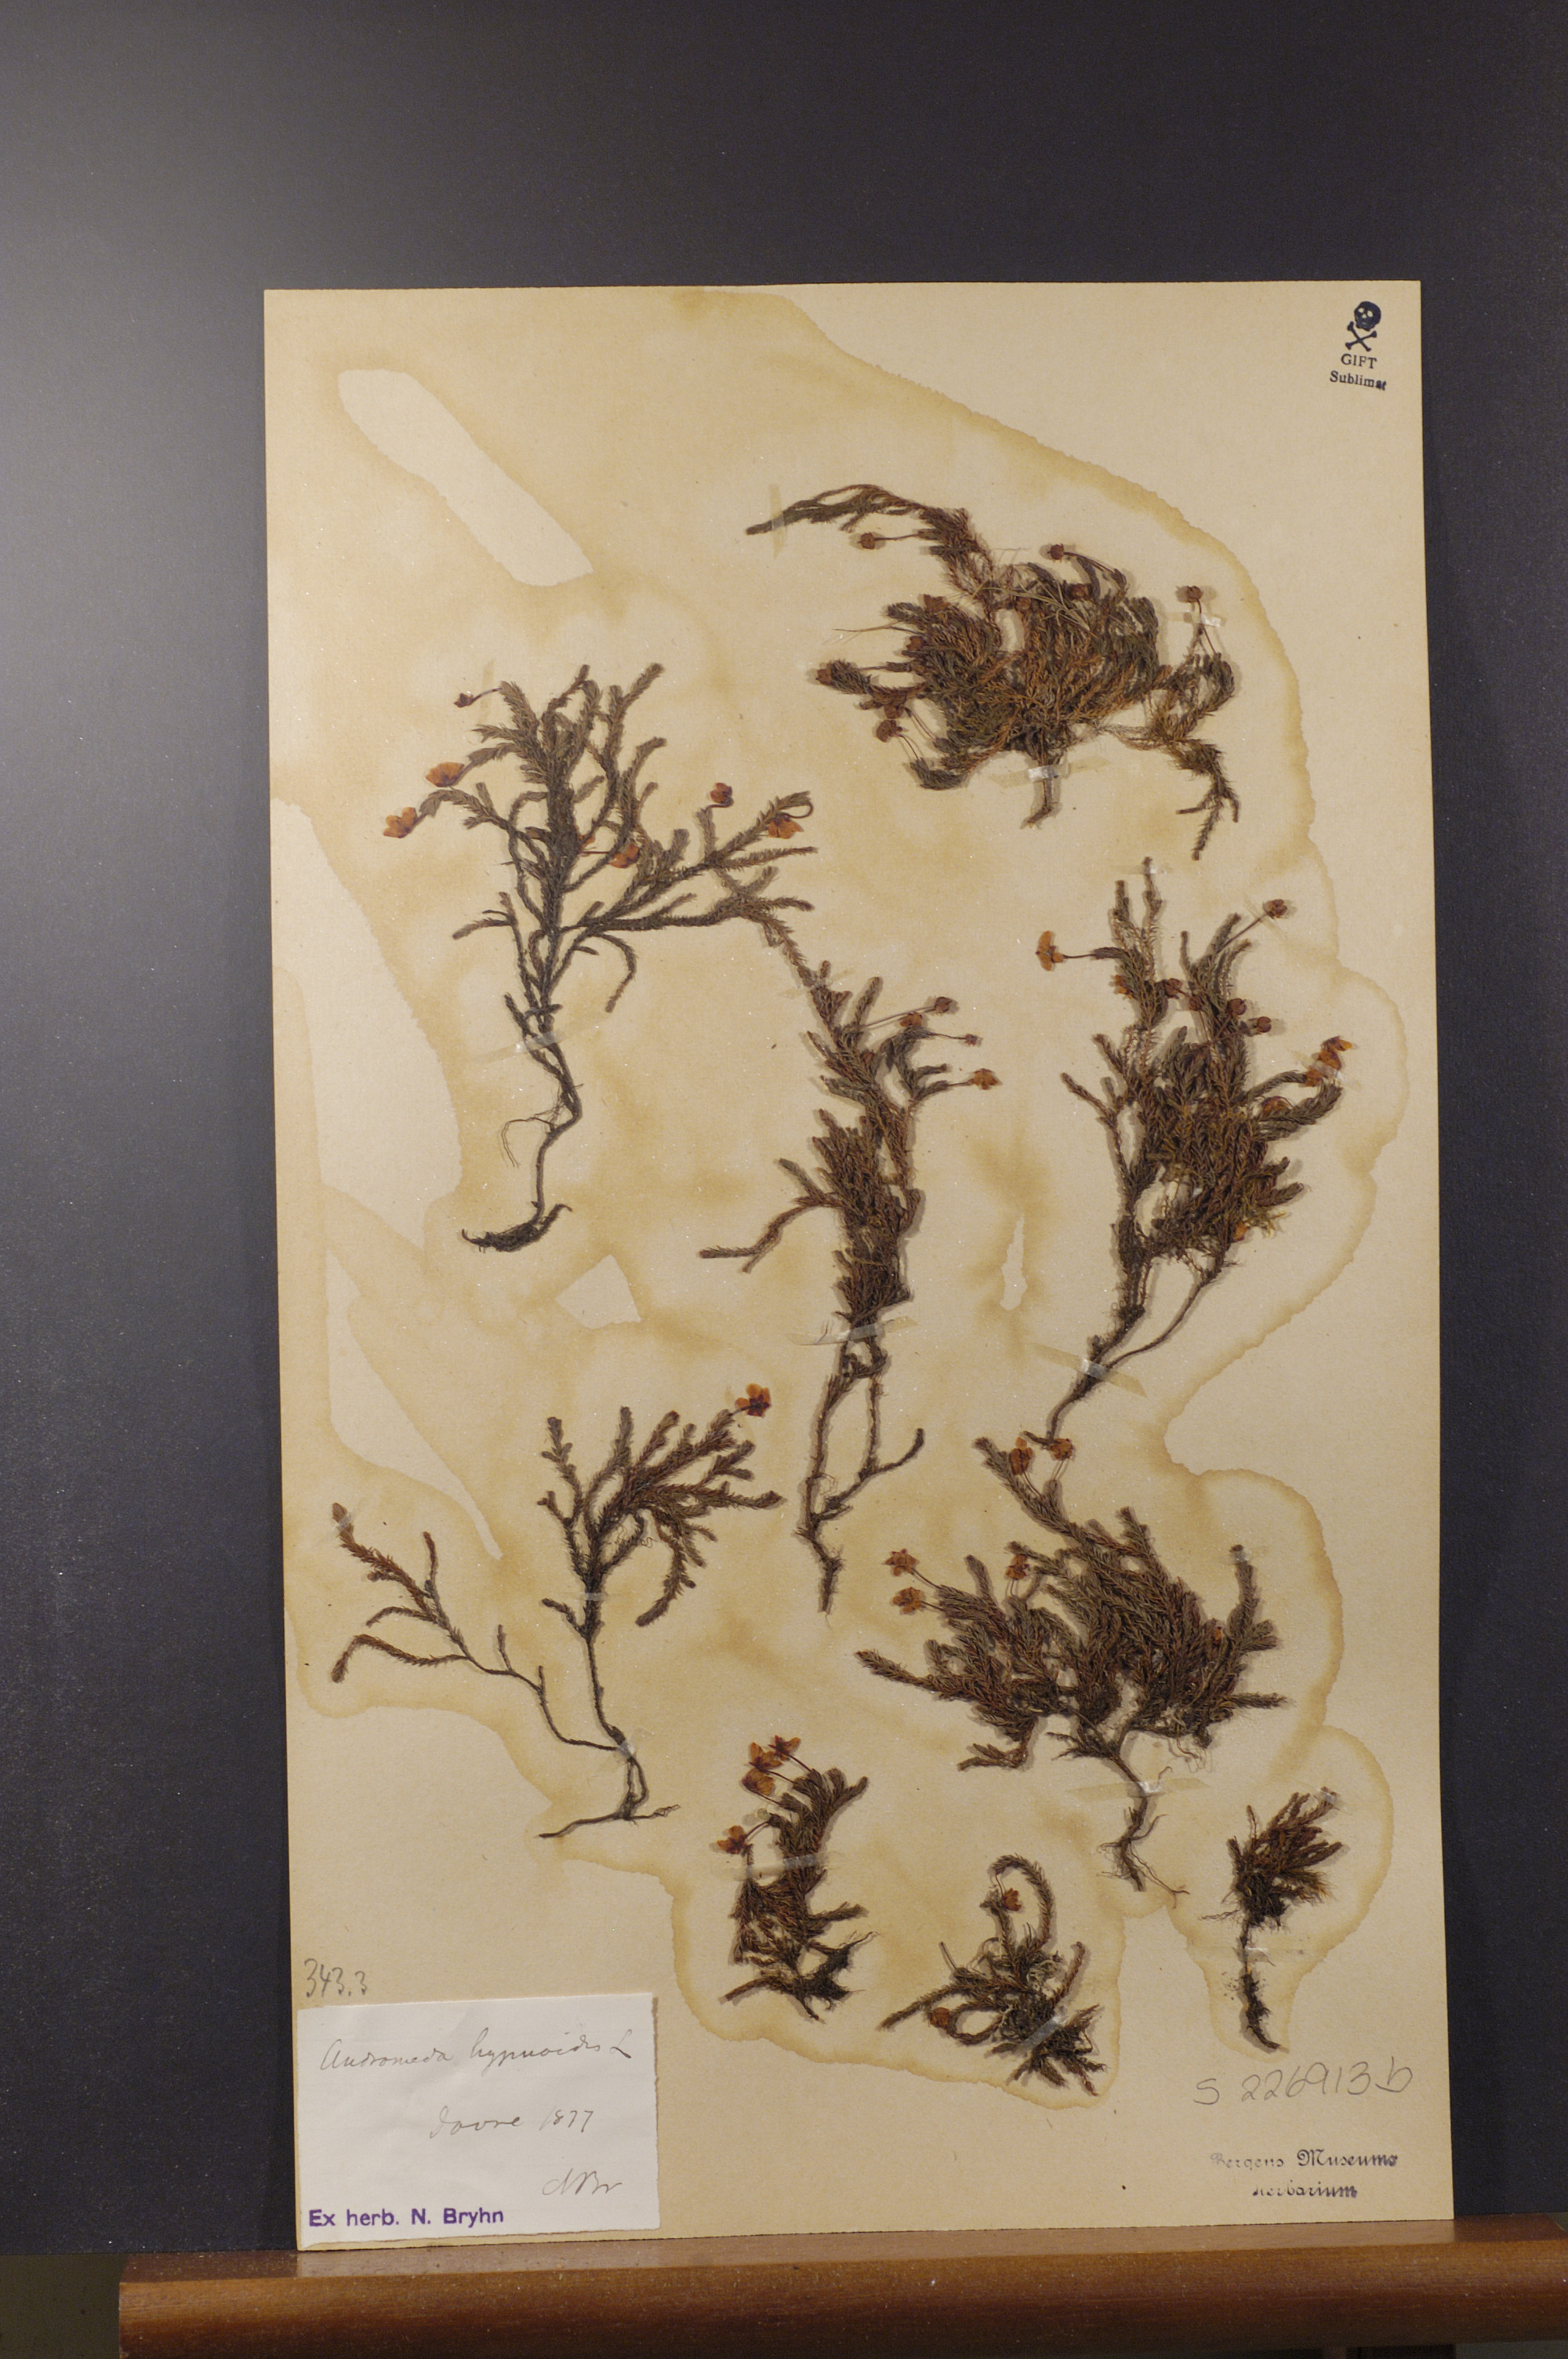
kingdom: Plantae
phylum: Tracheophyta
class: Magnoliopsida
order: Ericales
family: Ericaceae
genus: Harrimanella
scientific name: Harrimanella hypnoides
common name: Moss bell heather
